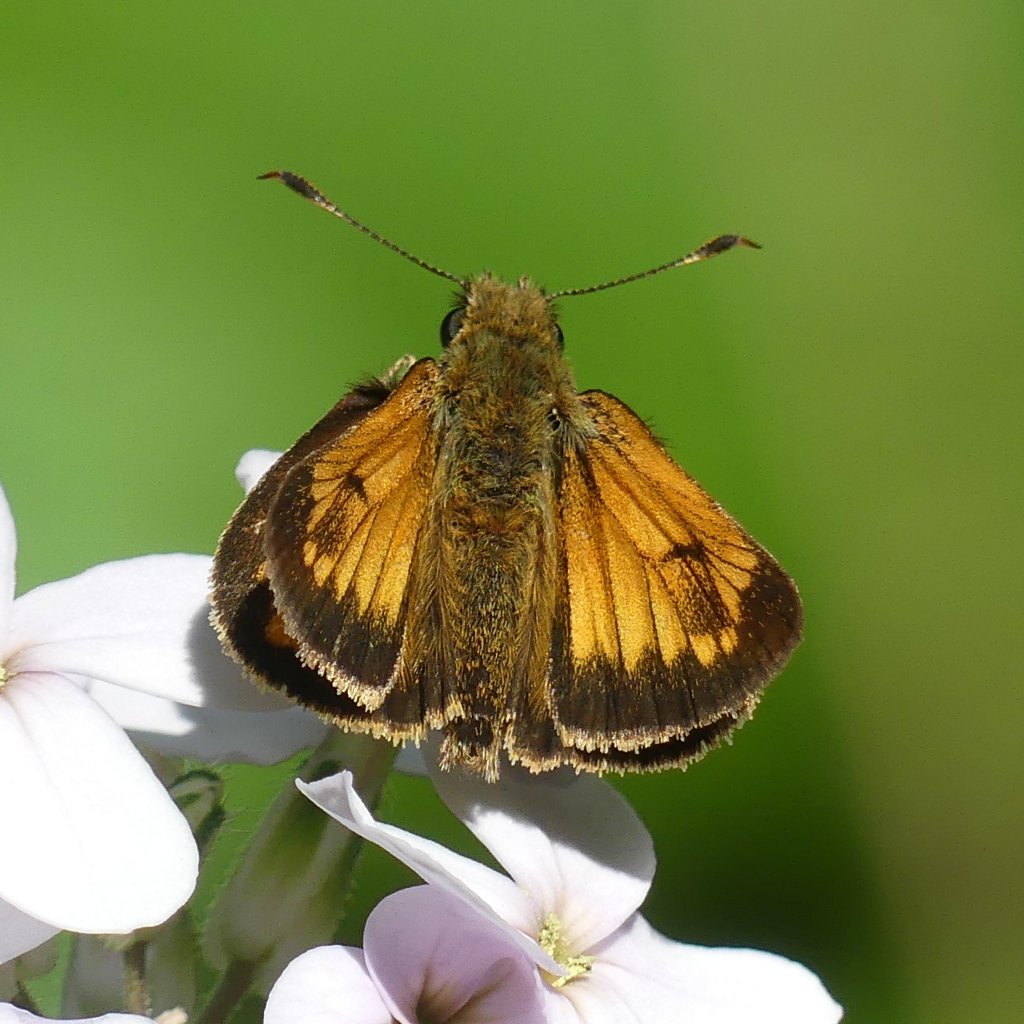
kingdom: Animalia
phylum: Arthropoda
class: Insecta
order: Lepidoptera
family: Hesperiidae
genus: Lon
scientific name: Lon hobomok
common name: Hobomok Skipper
